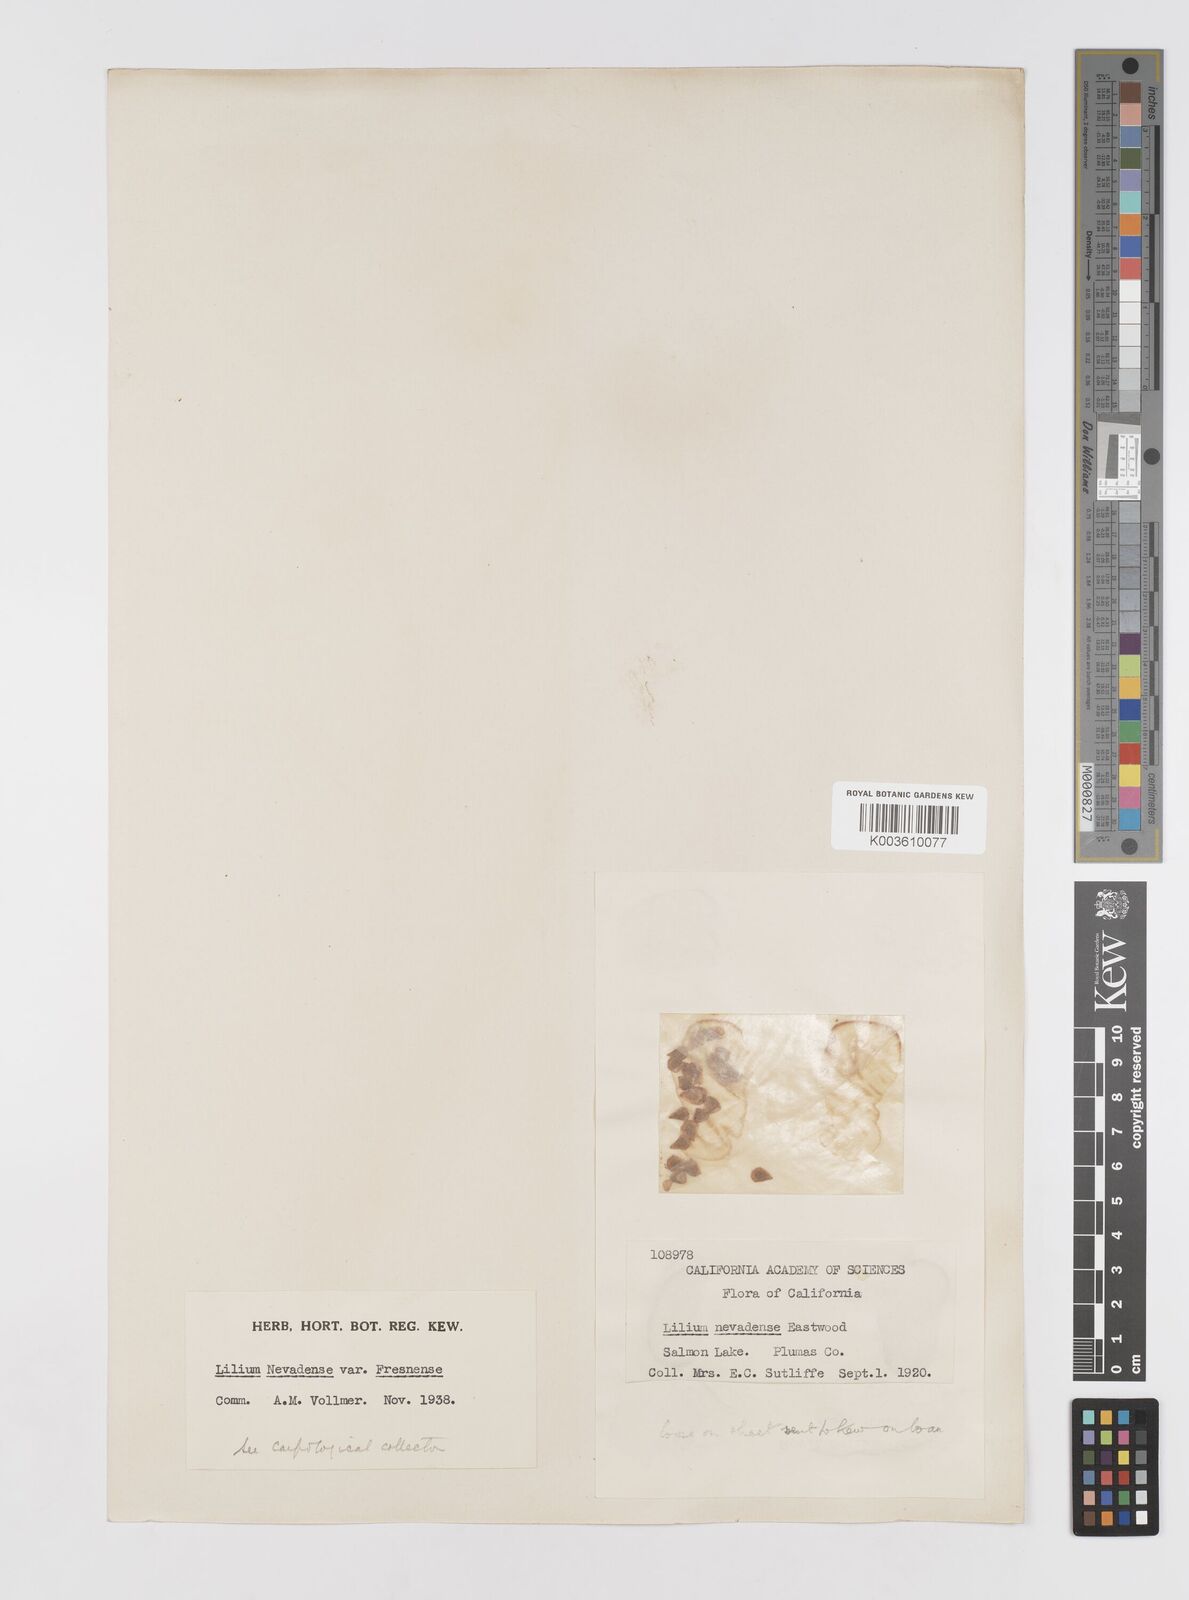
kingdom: Plantae
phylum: Tracheophyta
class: Liliopsida
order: Liliales
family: Liliaceae
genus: Lilium
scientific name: Lilium kelleyanum
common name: Kelley's lily
